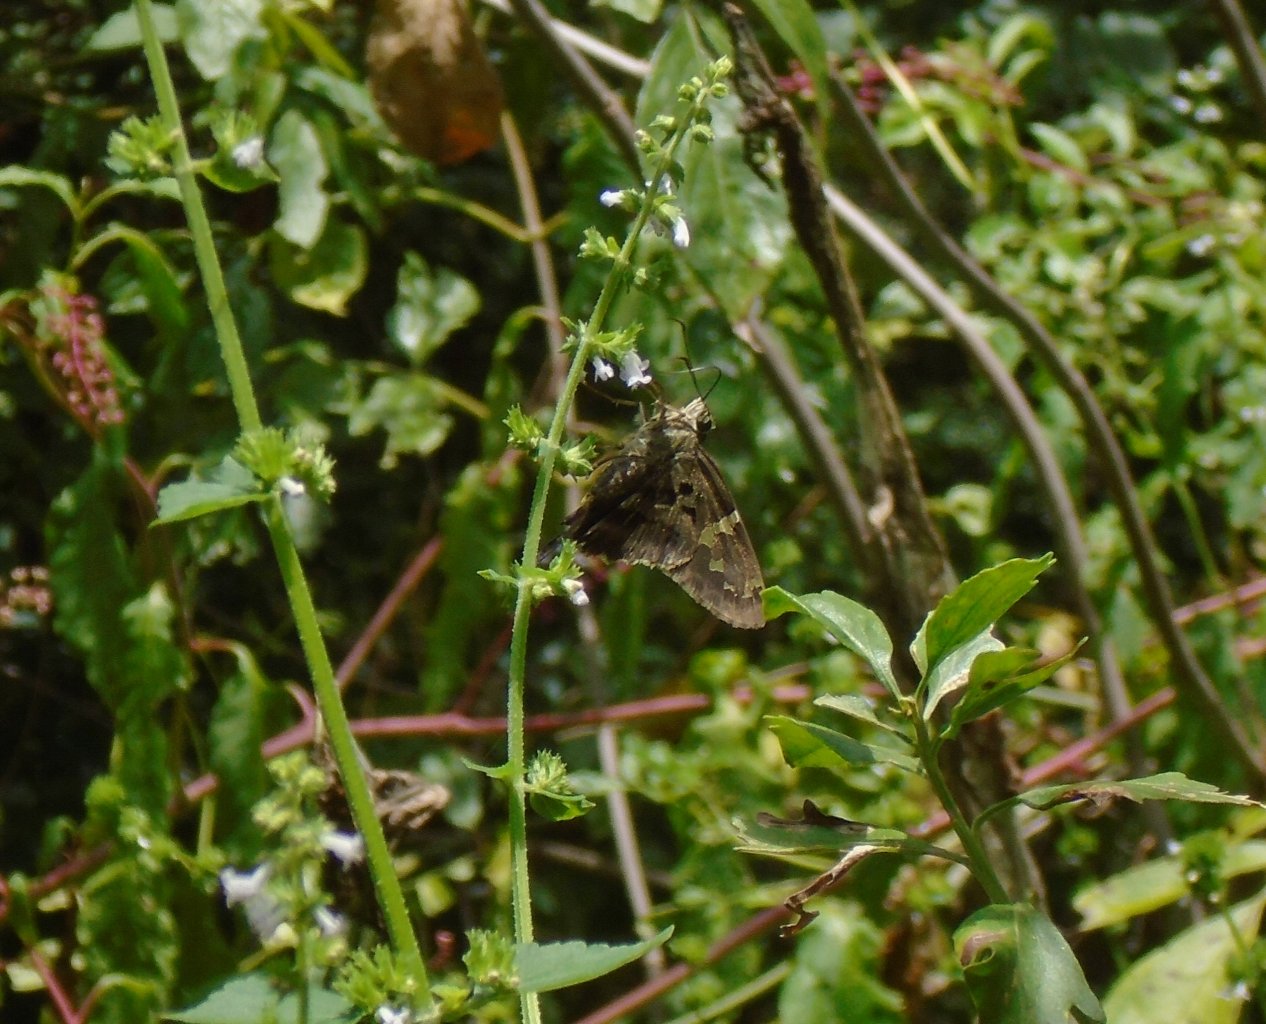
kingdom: Animalia
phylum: Arthropoda
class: Insecta
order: Lepidoptera
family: Hesperiidae
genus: Urbanus
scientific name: Urbanus proteus
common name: Long-tailed Skipper
